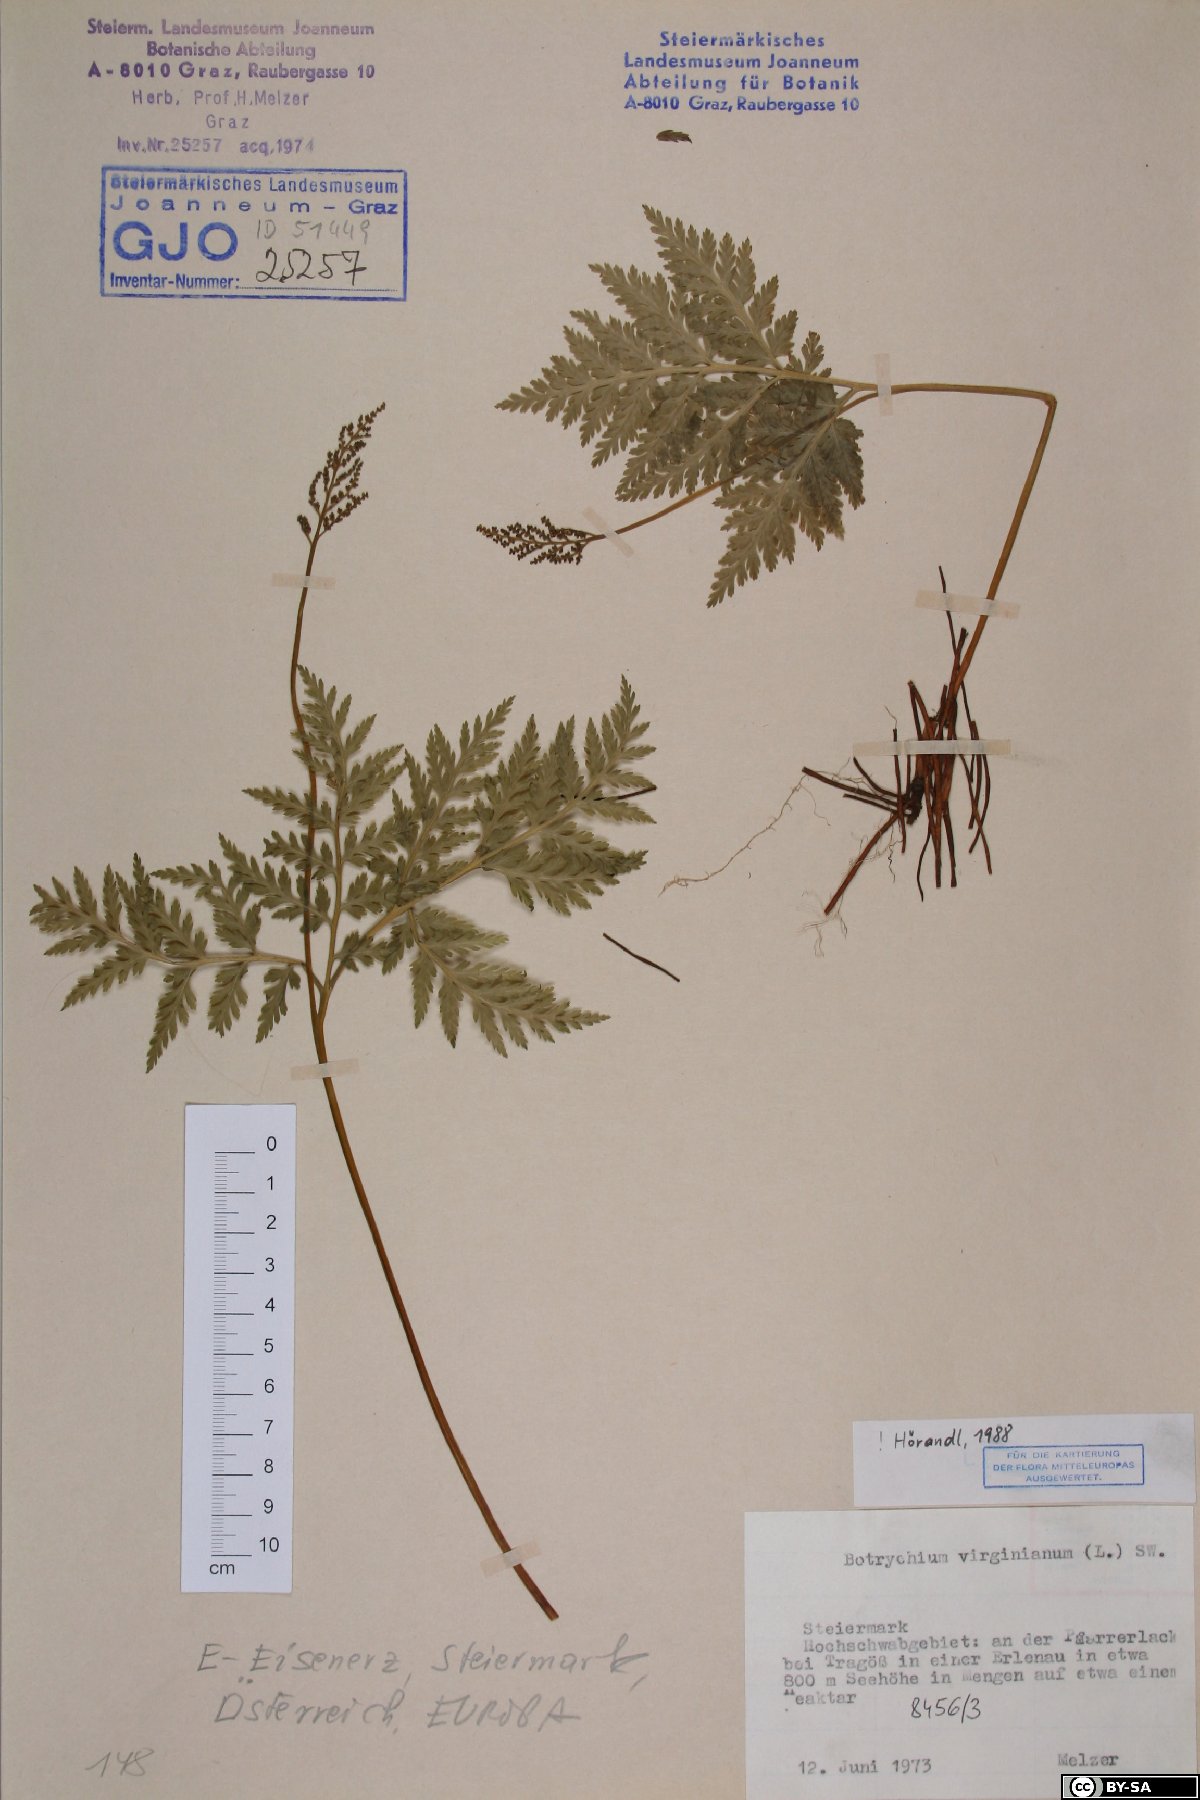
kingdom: Plantae
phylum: Tracheophyta
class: Polypodiopsida
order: Ophioglossales
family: Ophioglossaceae
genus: Botrypus
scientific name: Botrypus virginianus
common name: Common grapefern
